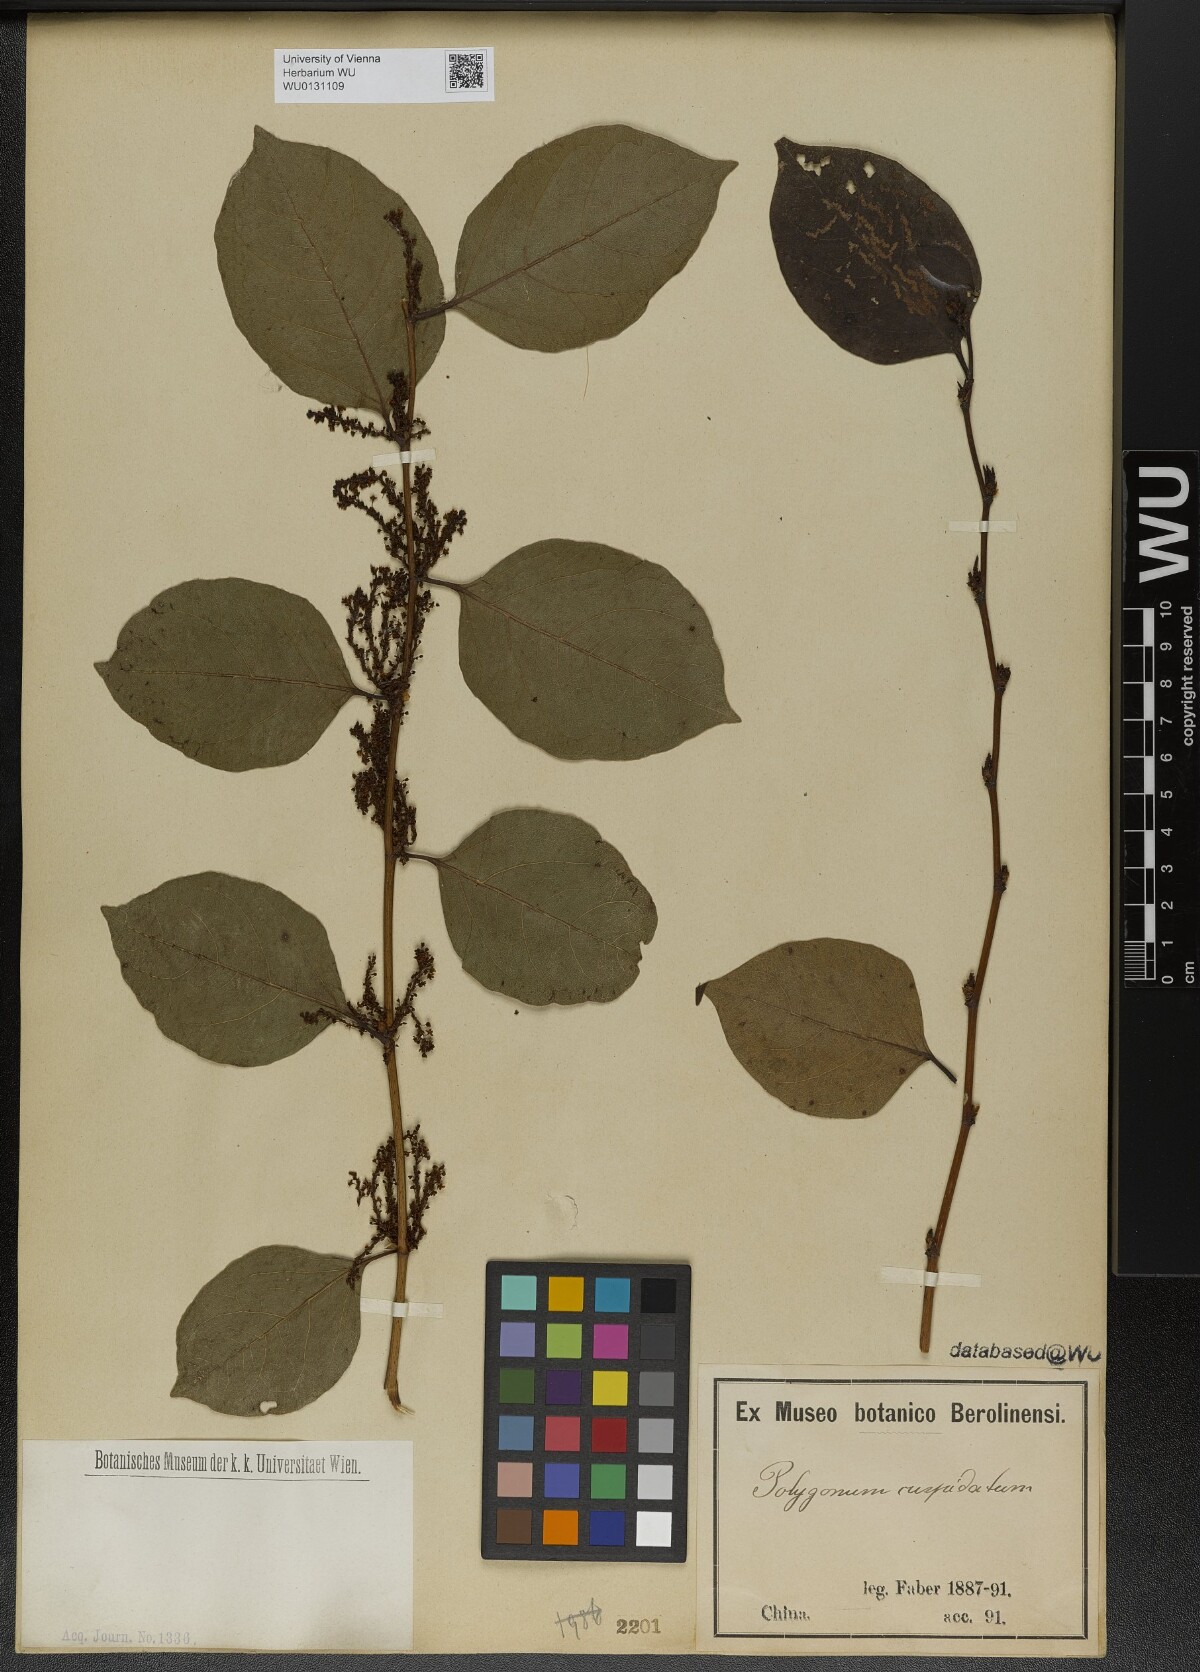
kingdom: Plantae
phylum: Tracheophyta
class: Magnoliopsida
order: Caryophyllales
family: Polygonaceae
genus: Reynoutria
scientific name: Reynoutria japonica
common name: Japanese knotweed
